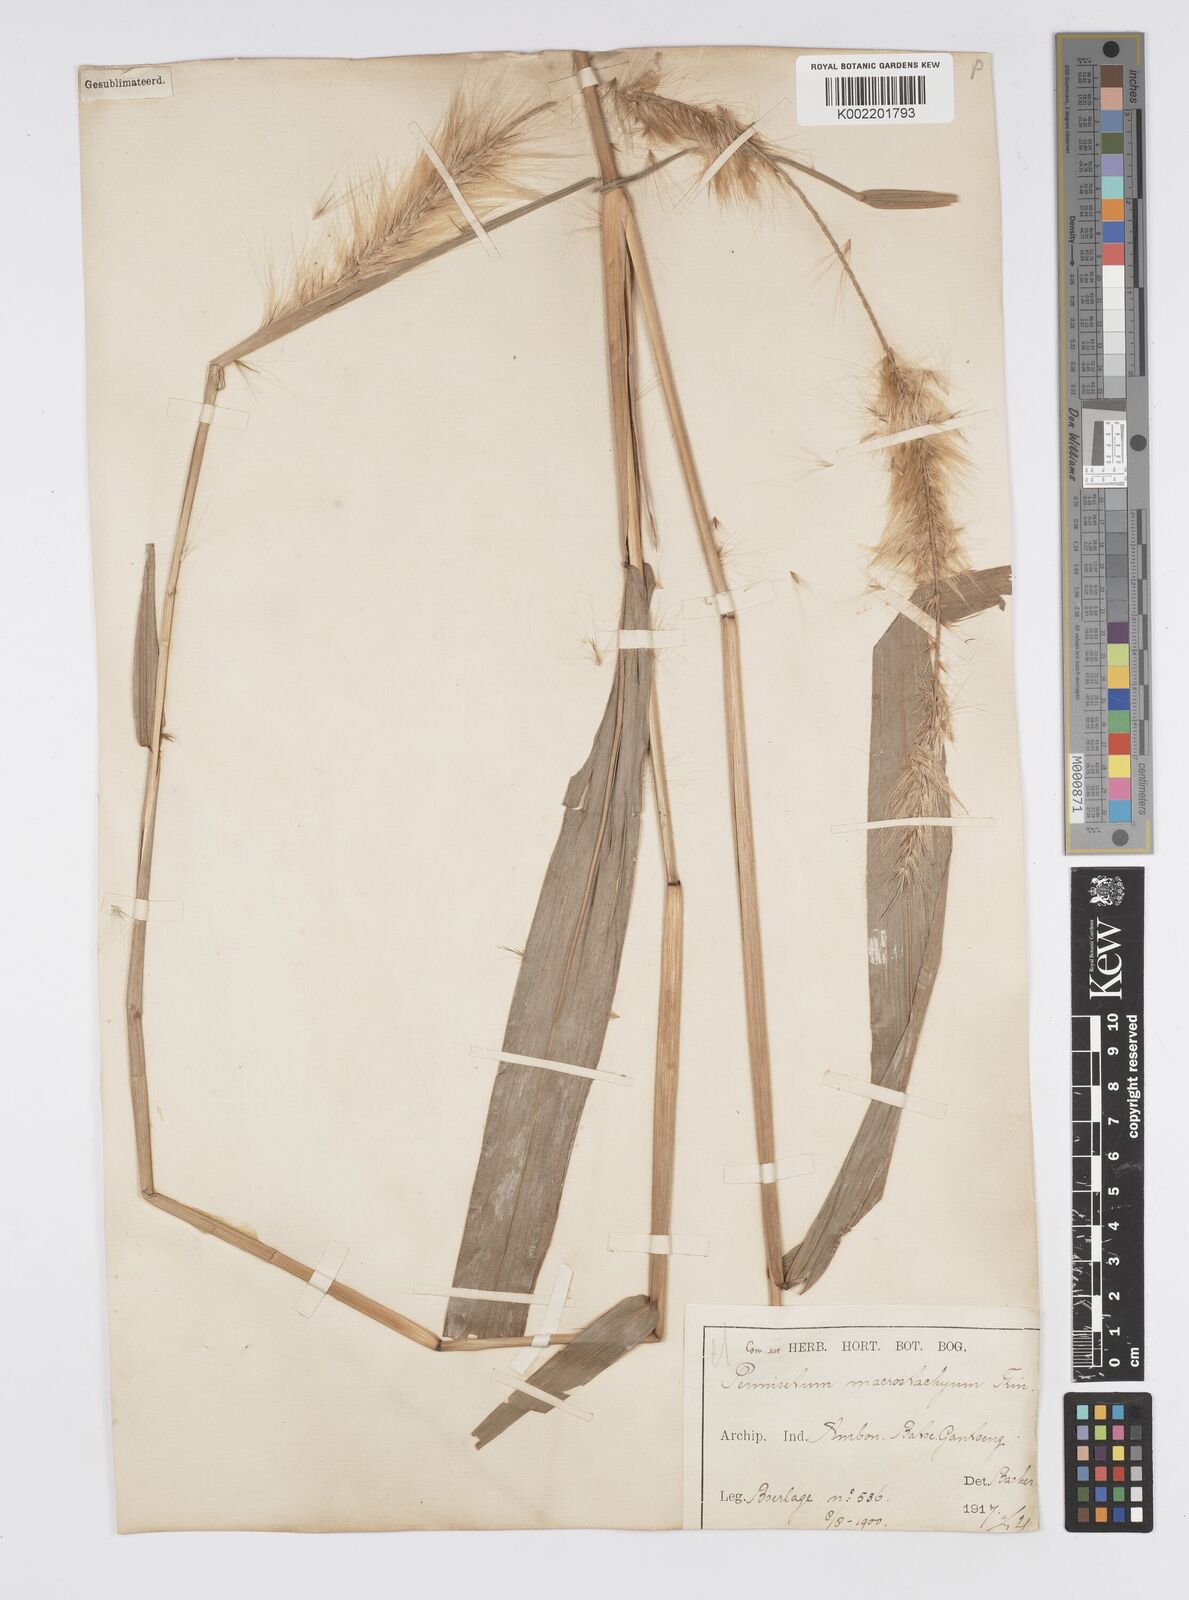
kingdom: Plantae
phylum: Tracheophyta
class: Liliopsida
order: Poales
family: Poaceae
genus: Cenchrus
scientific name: Cenchrus purpureus
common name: Elephant grass
